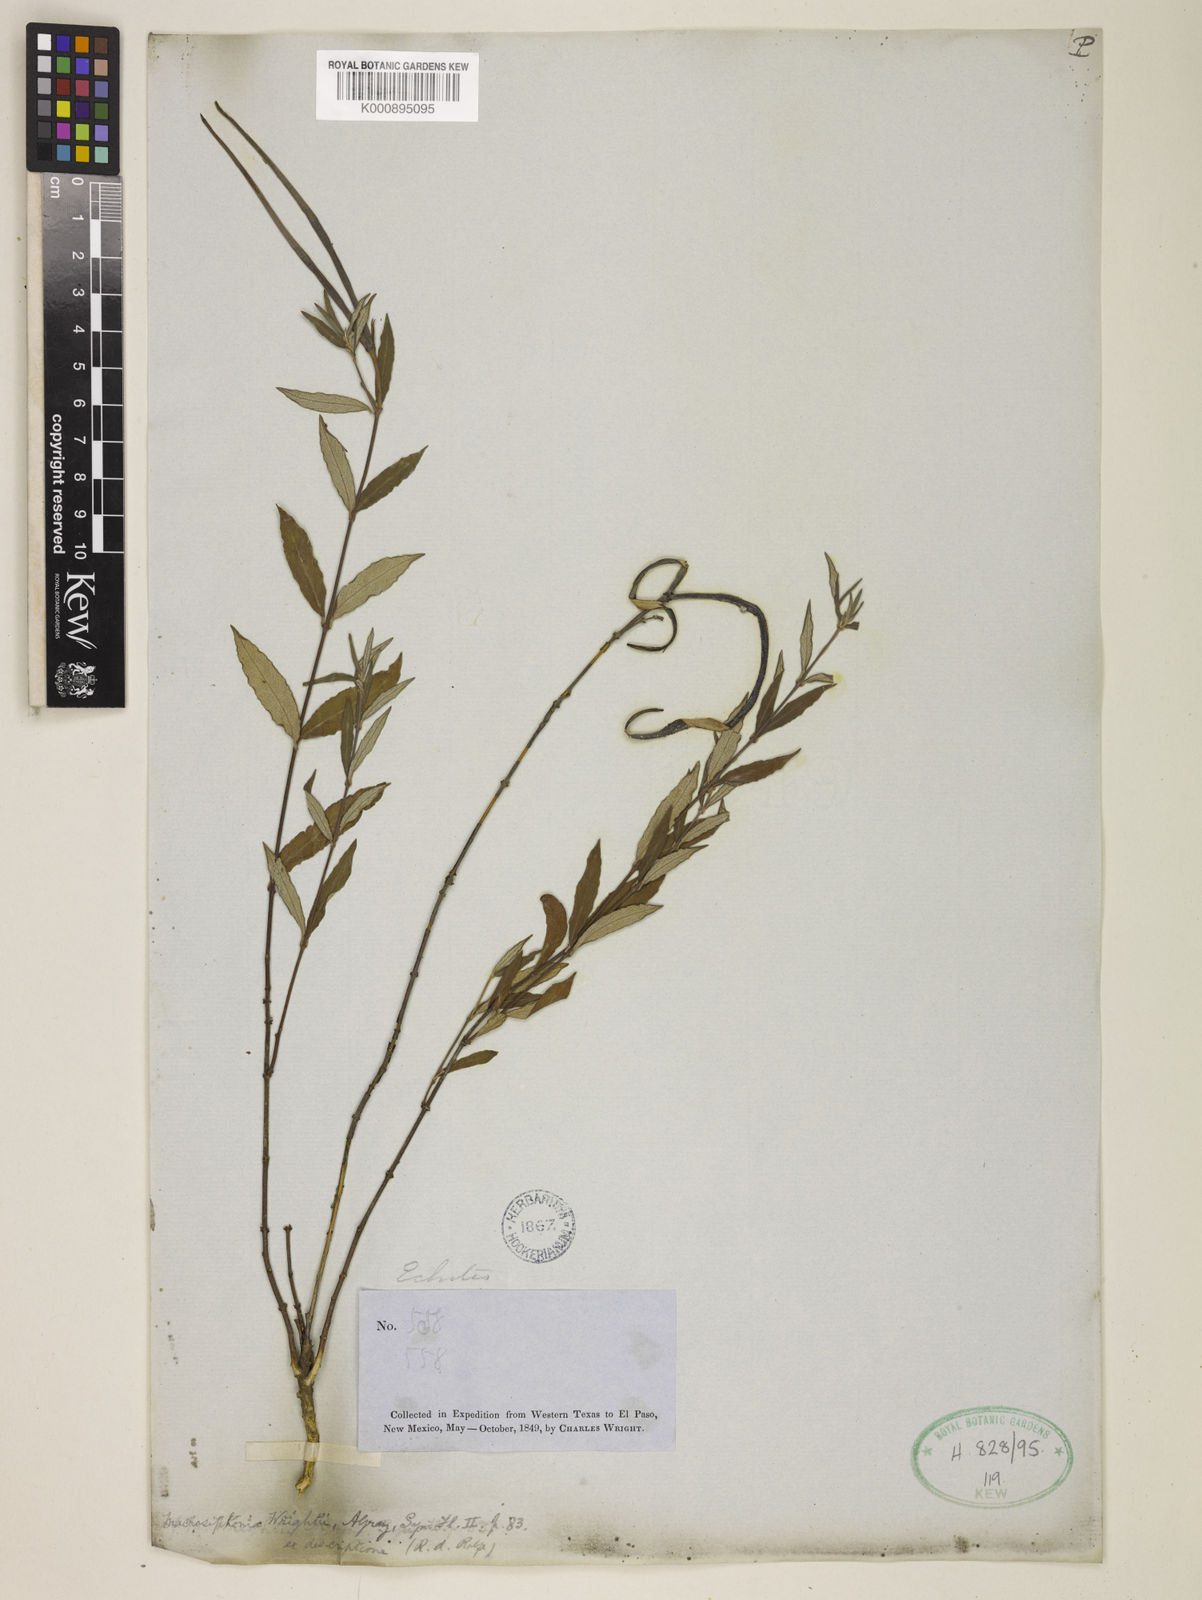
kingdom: Plantae
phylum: Tracheophyta
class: Magnoliopsida
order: Gentianales
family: Apocynaceae
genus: Mandevilla
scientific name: Mandevilla hypoleuca
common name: Davis mountain rocktrumpet
